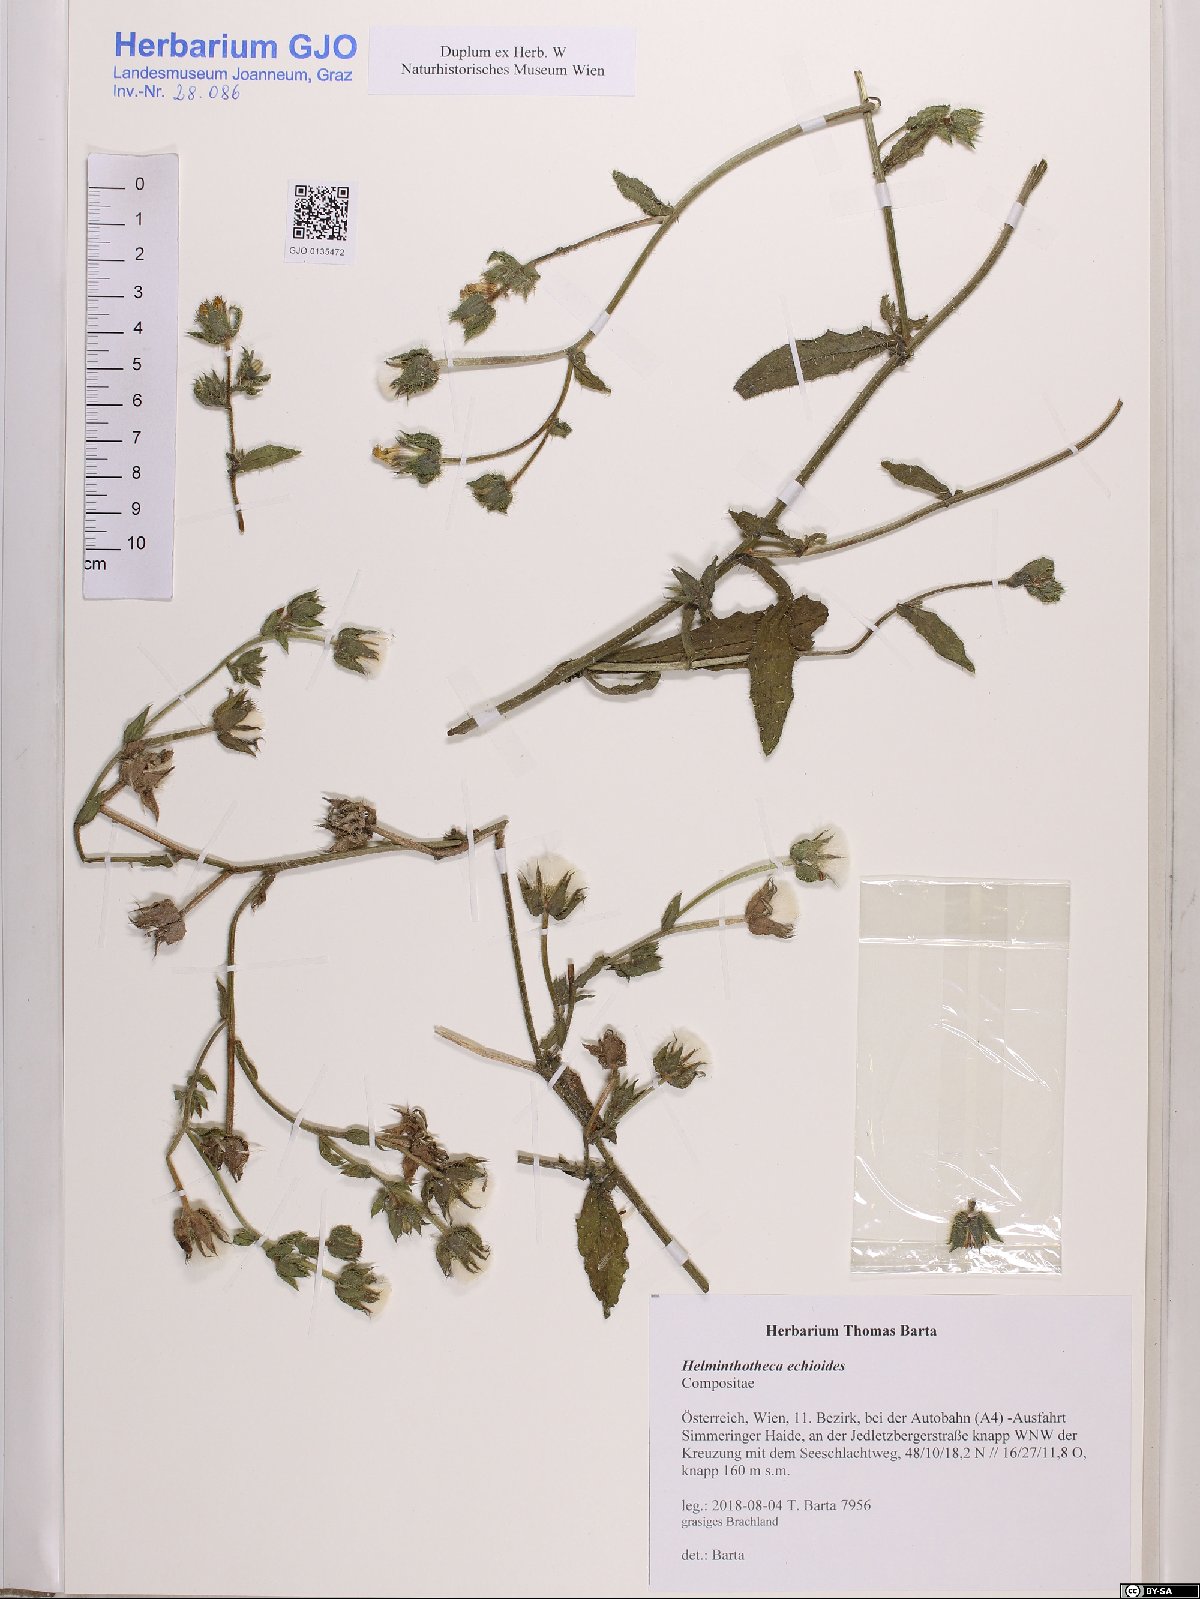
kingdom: Plantae
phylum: Tracheophyta
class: Magnoliopsida
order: Asterales
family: Asteraceae
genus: Helminthotheca
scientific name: Helminthotheca echioides
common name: Ox-tongue
